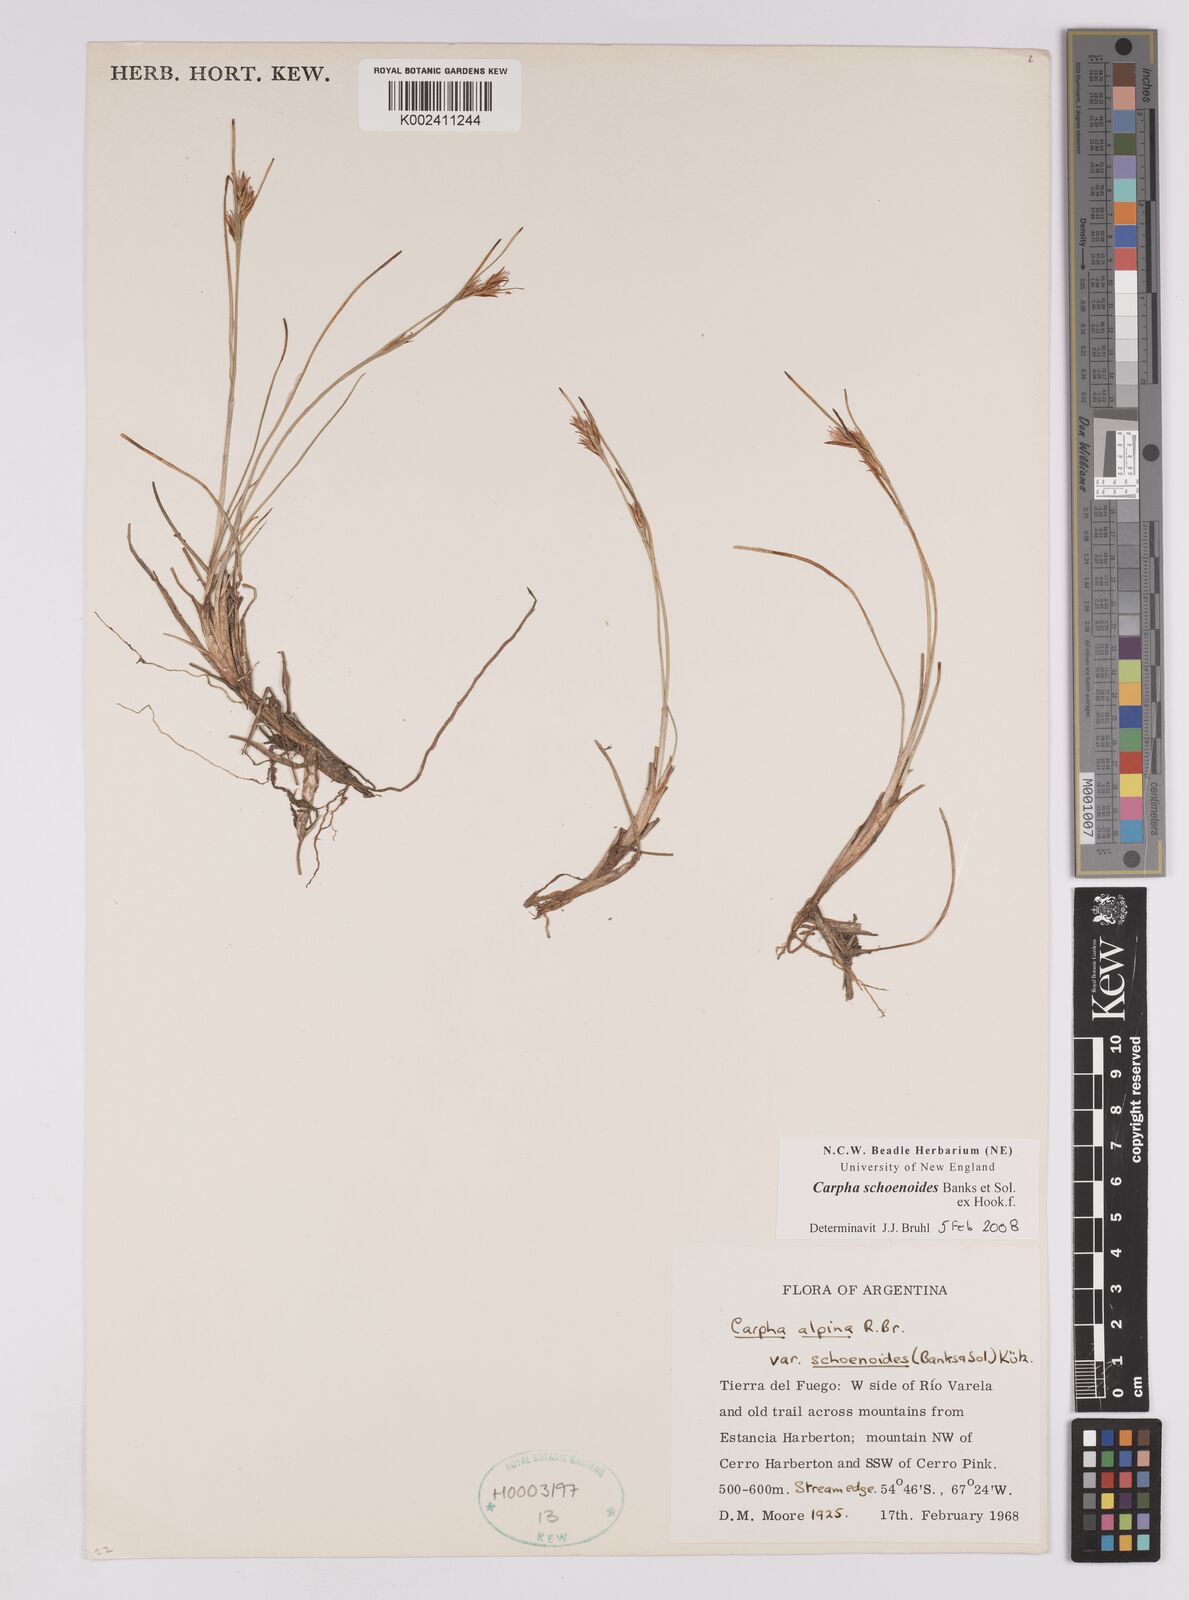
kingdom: Plantae
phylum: Tracheophyta
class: Liliopsida
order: Poales
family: Cyperaceae
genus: Carpha
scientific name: Carpha schoenoides
